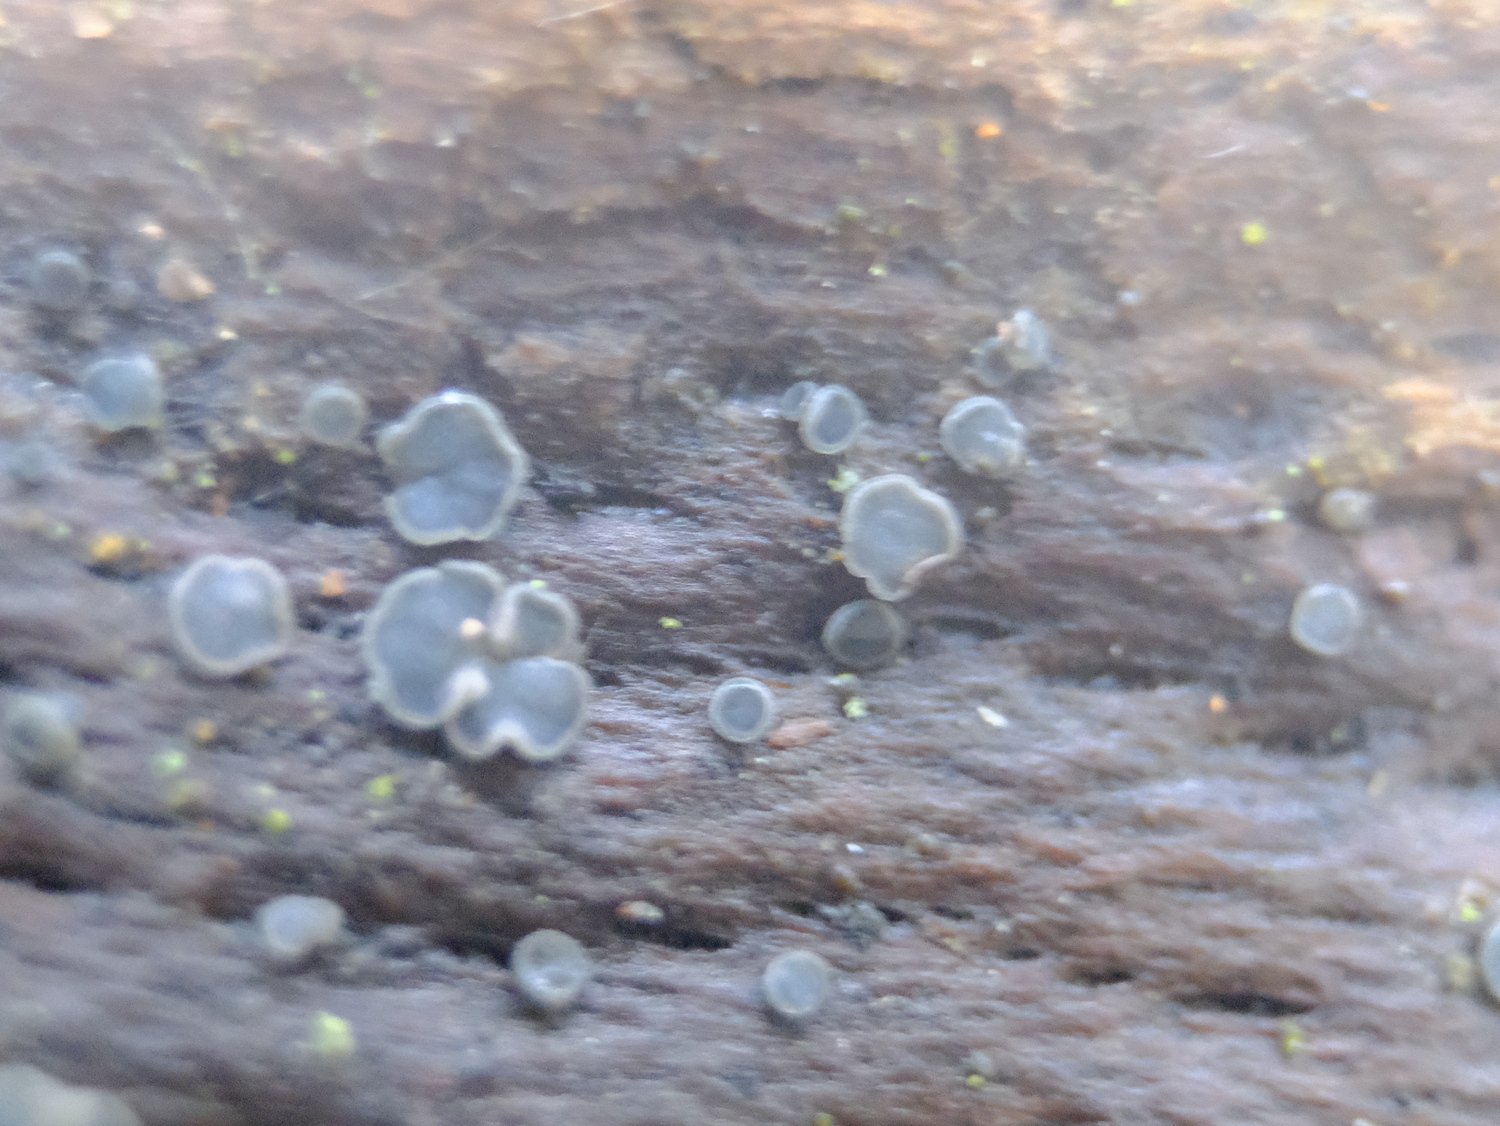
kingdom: Fungi
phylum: Ascomycota
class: Leotiomycetes
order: Helotiales
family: Mollisiaceae
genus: Mollisia
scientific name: Mollisia cinerea
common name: almindelig gråskive
